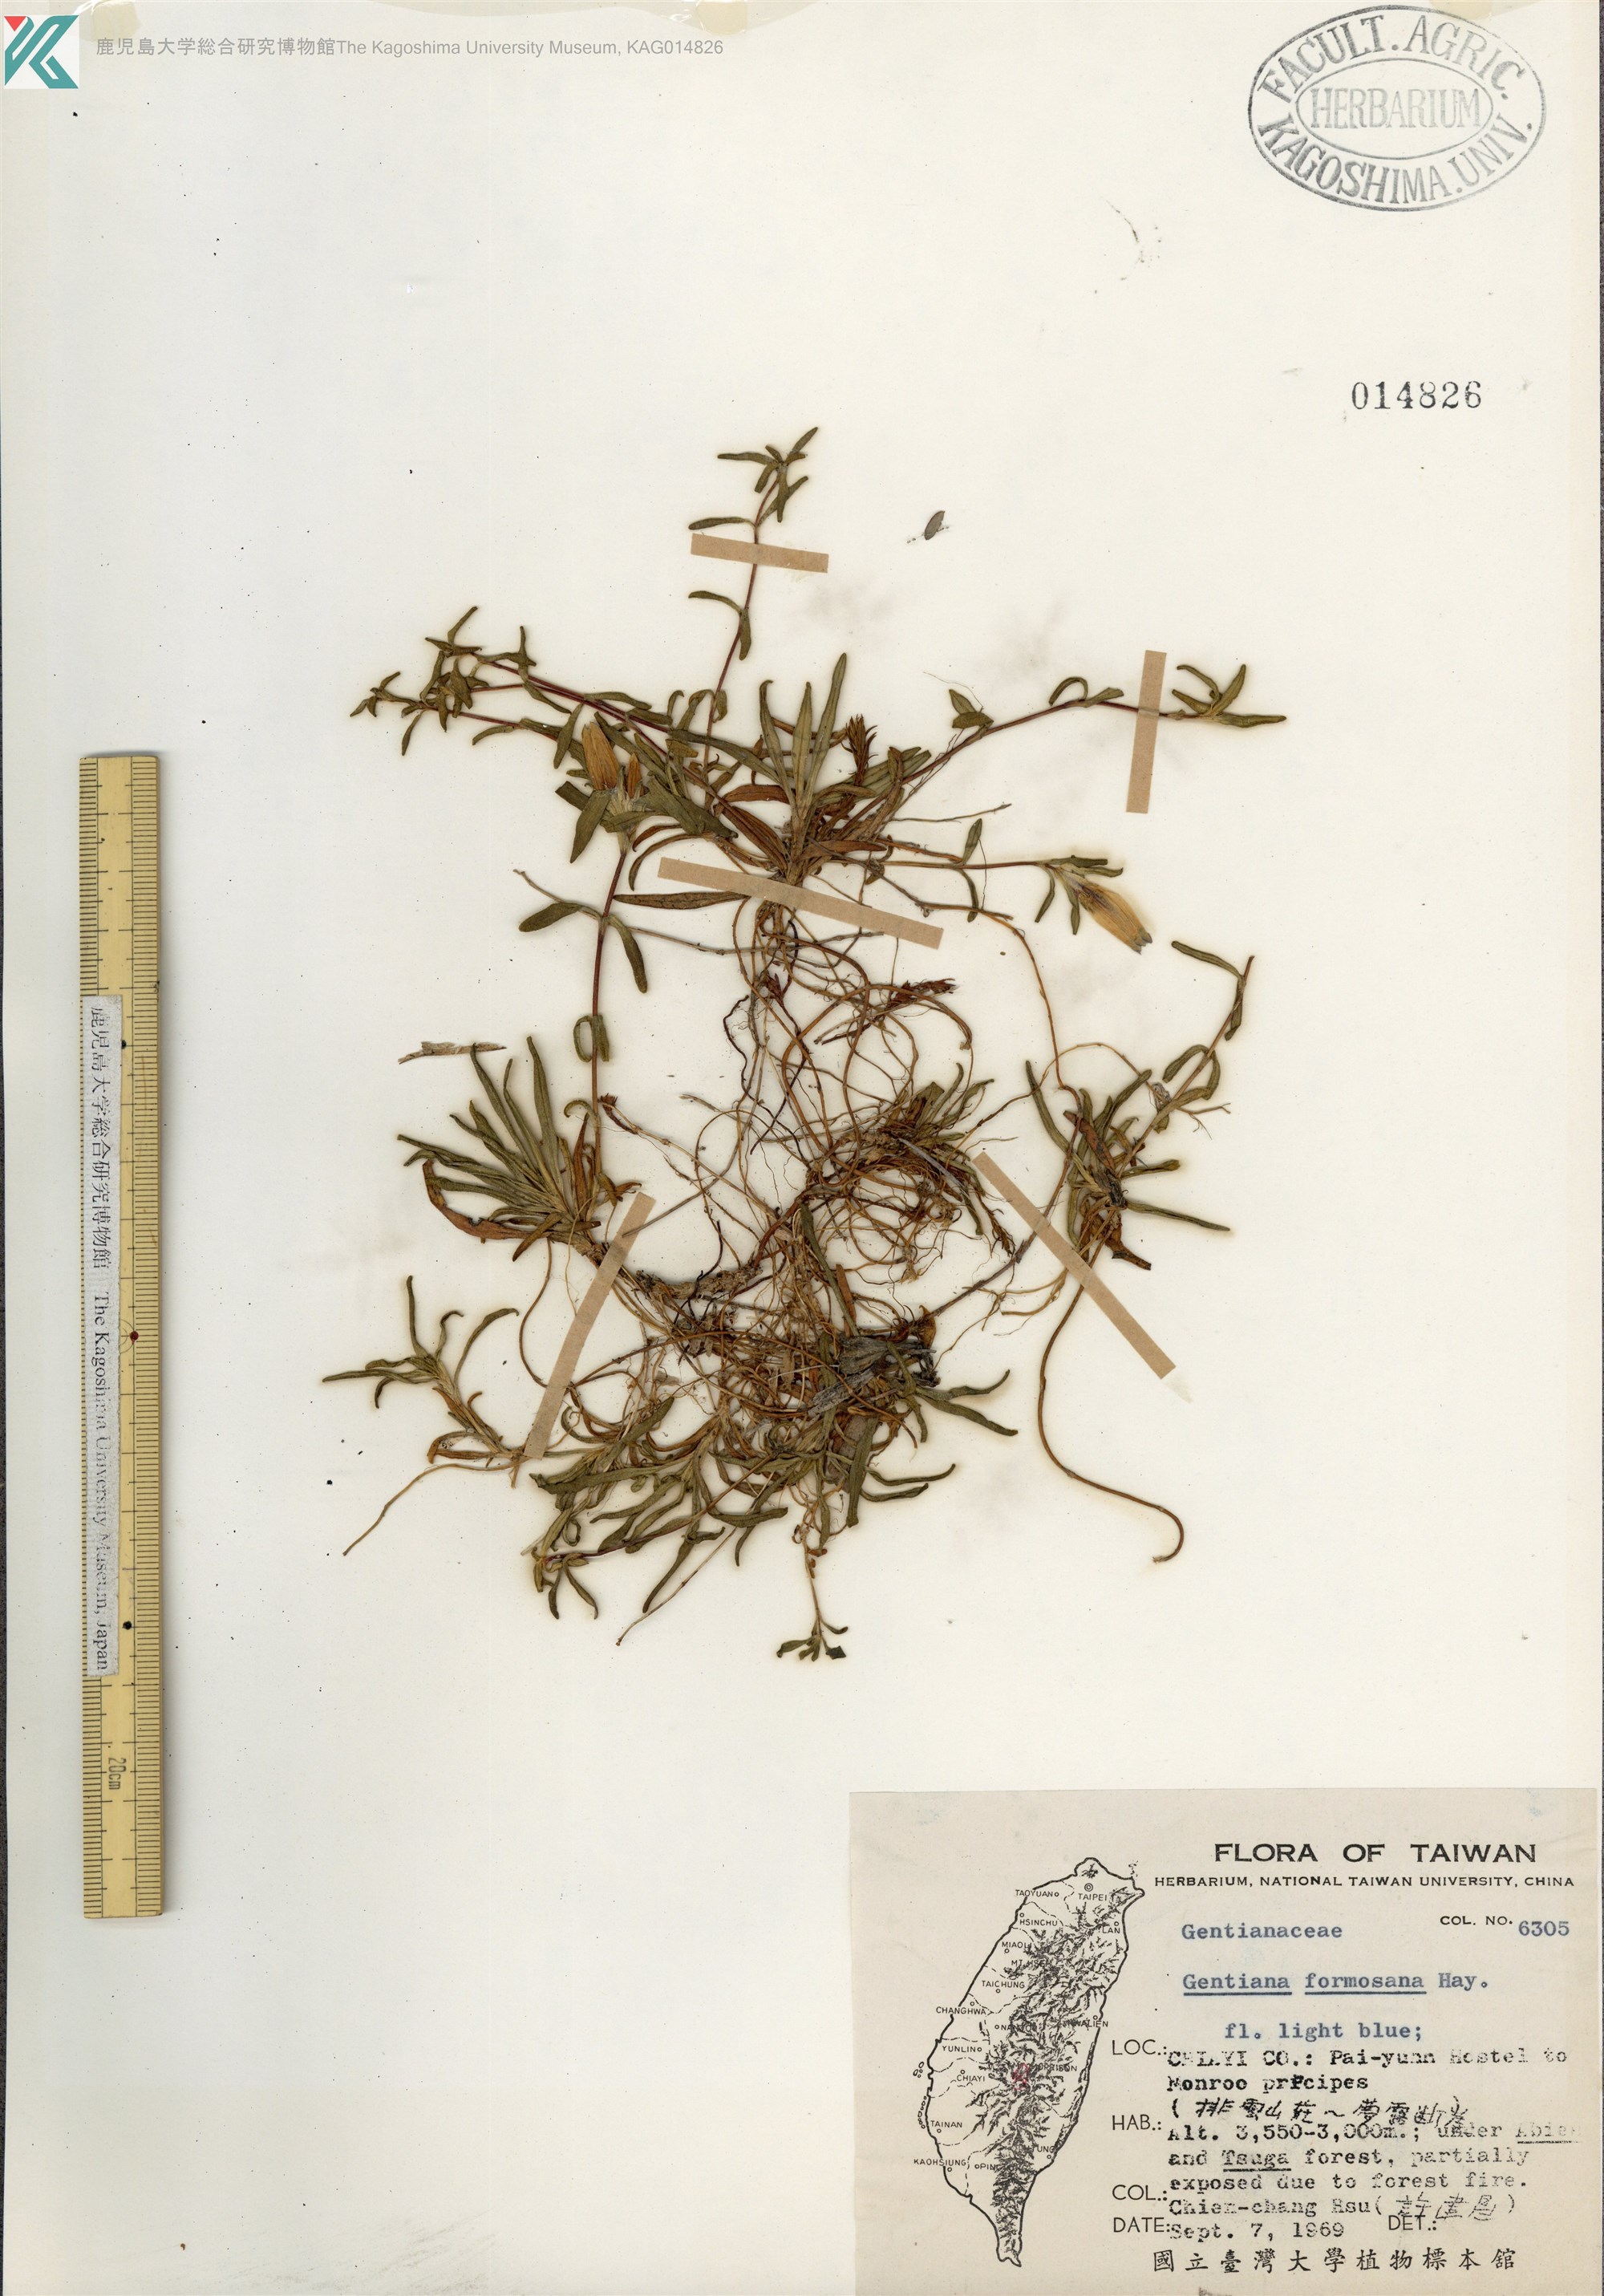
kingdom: Plantae
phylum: Tracheophyta
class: Magnoliopsida
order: Gentianales
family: Gentianaceae
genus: Gentiana
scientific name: Gentiana davidii
